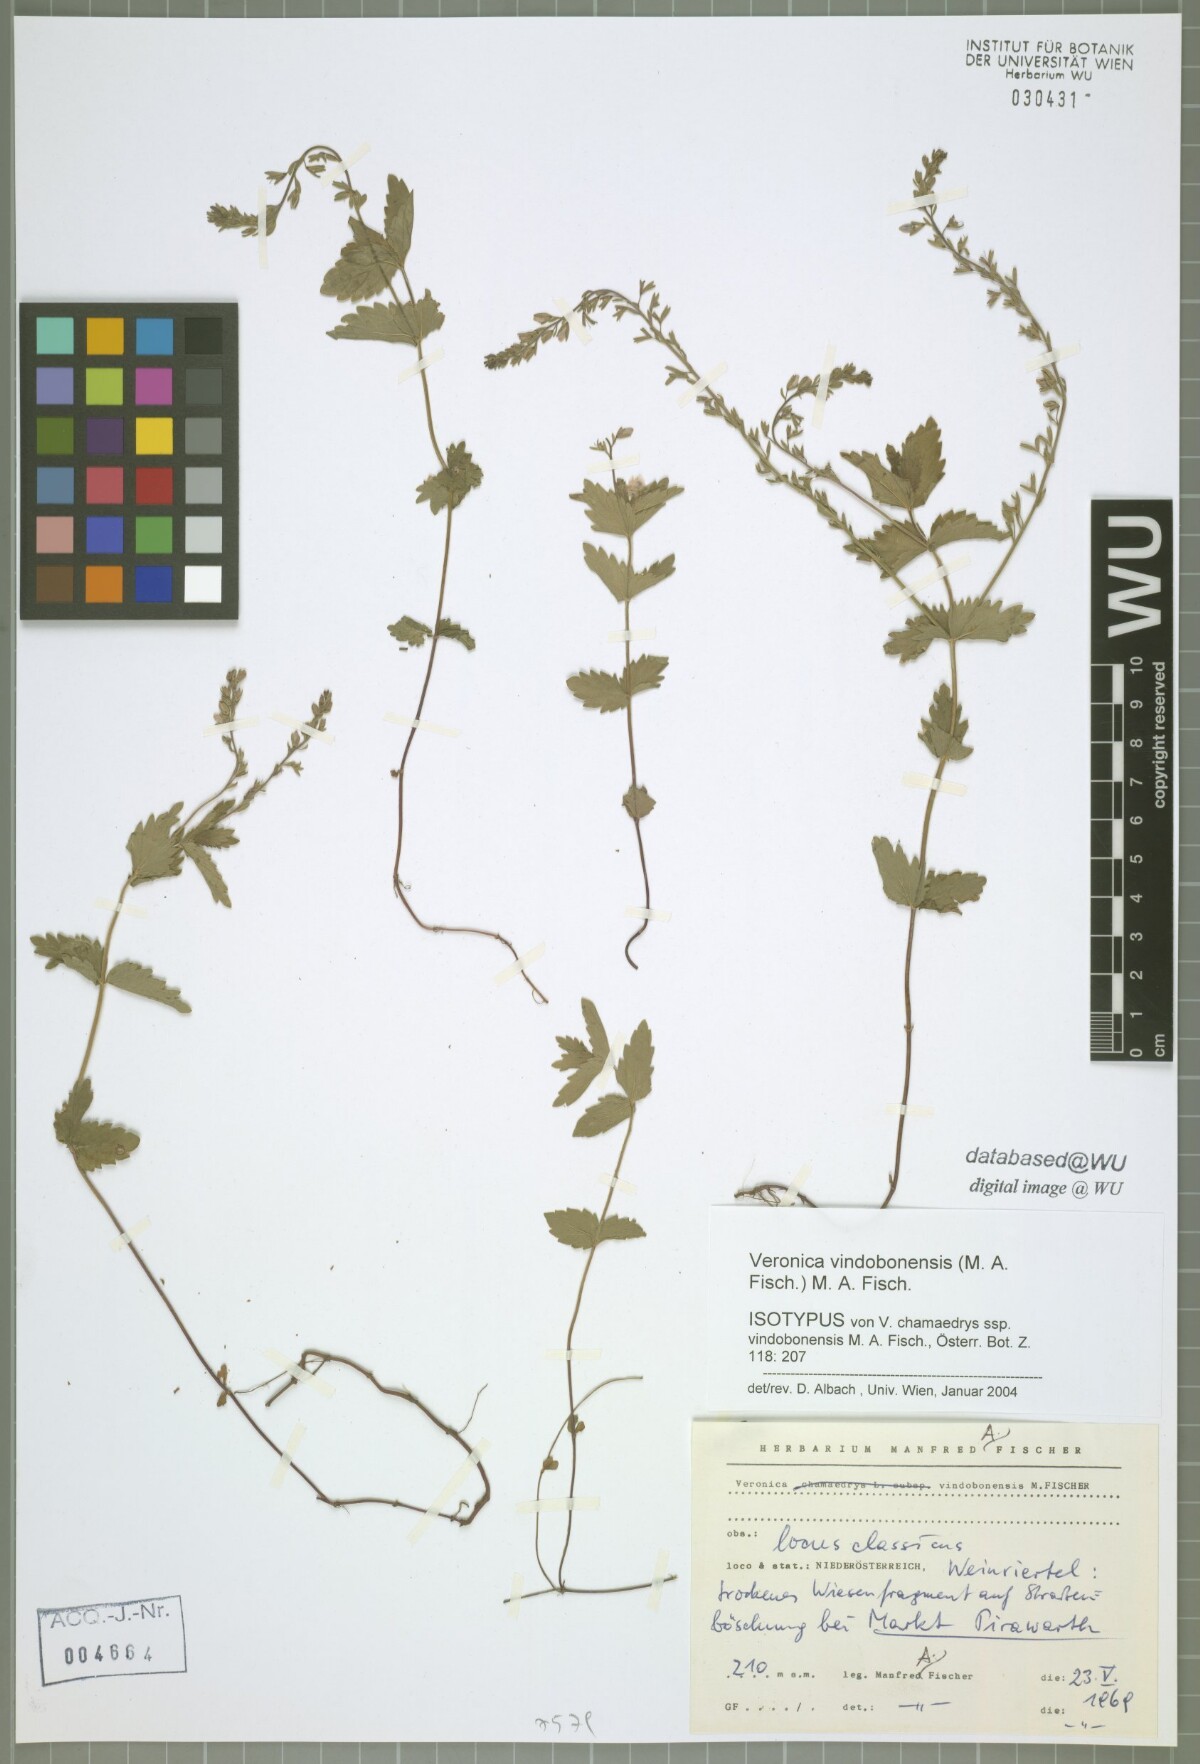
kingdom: Plantae
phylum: Tracheophyta
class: Magnoliopsida
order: Lamiales
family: Plantaginaceae
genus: Veronica
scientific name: Veronica vindobonensis
